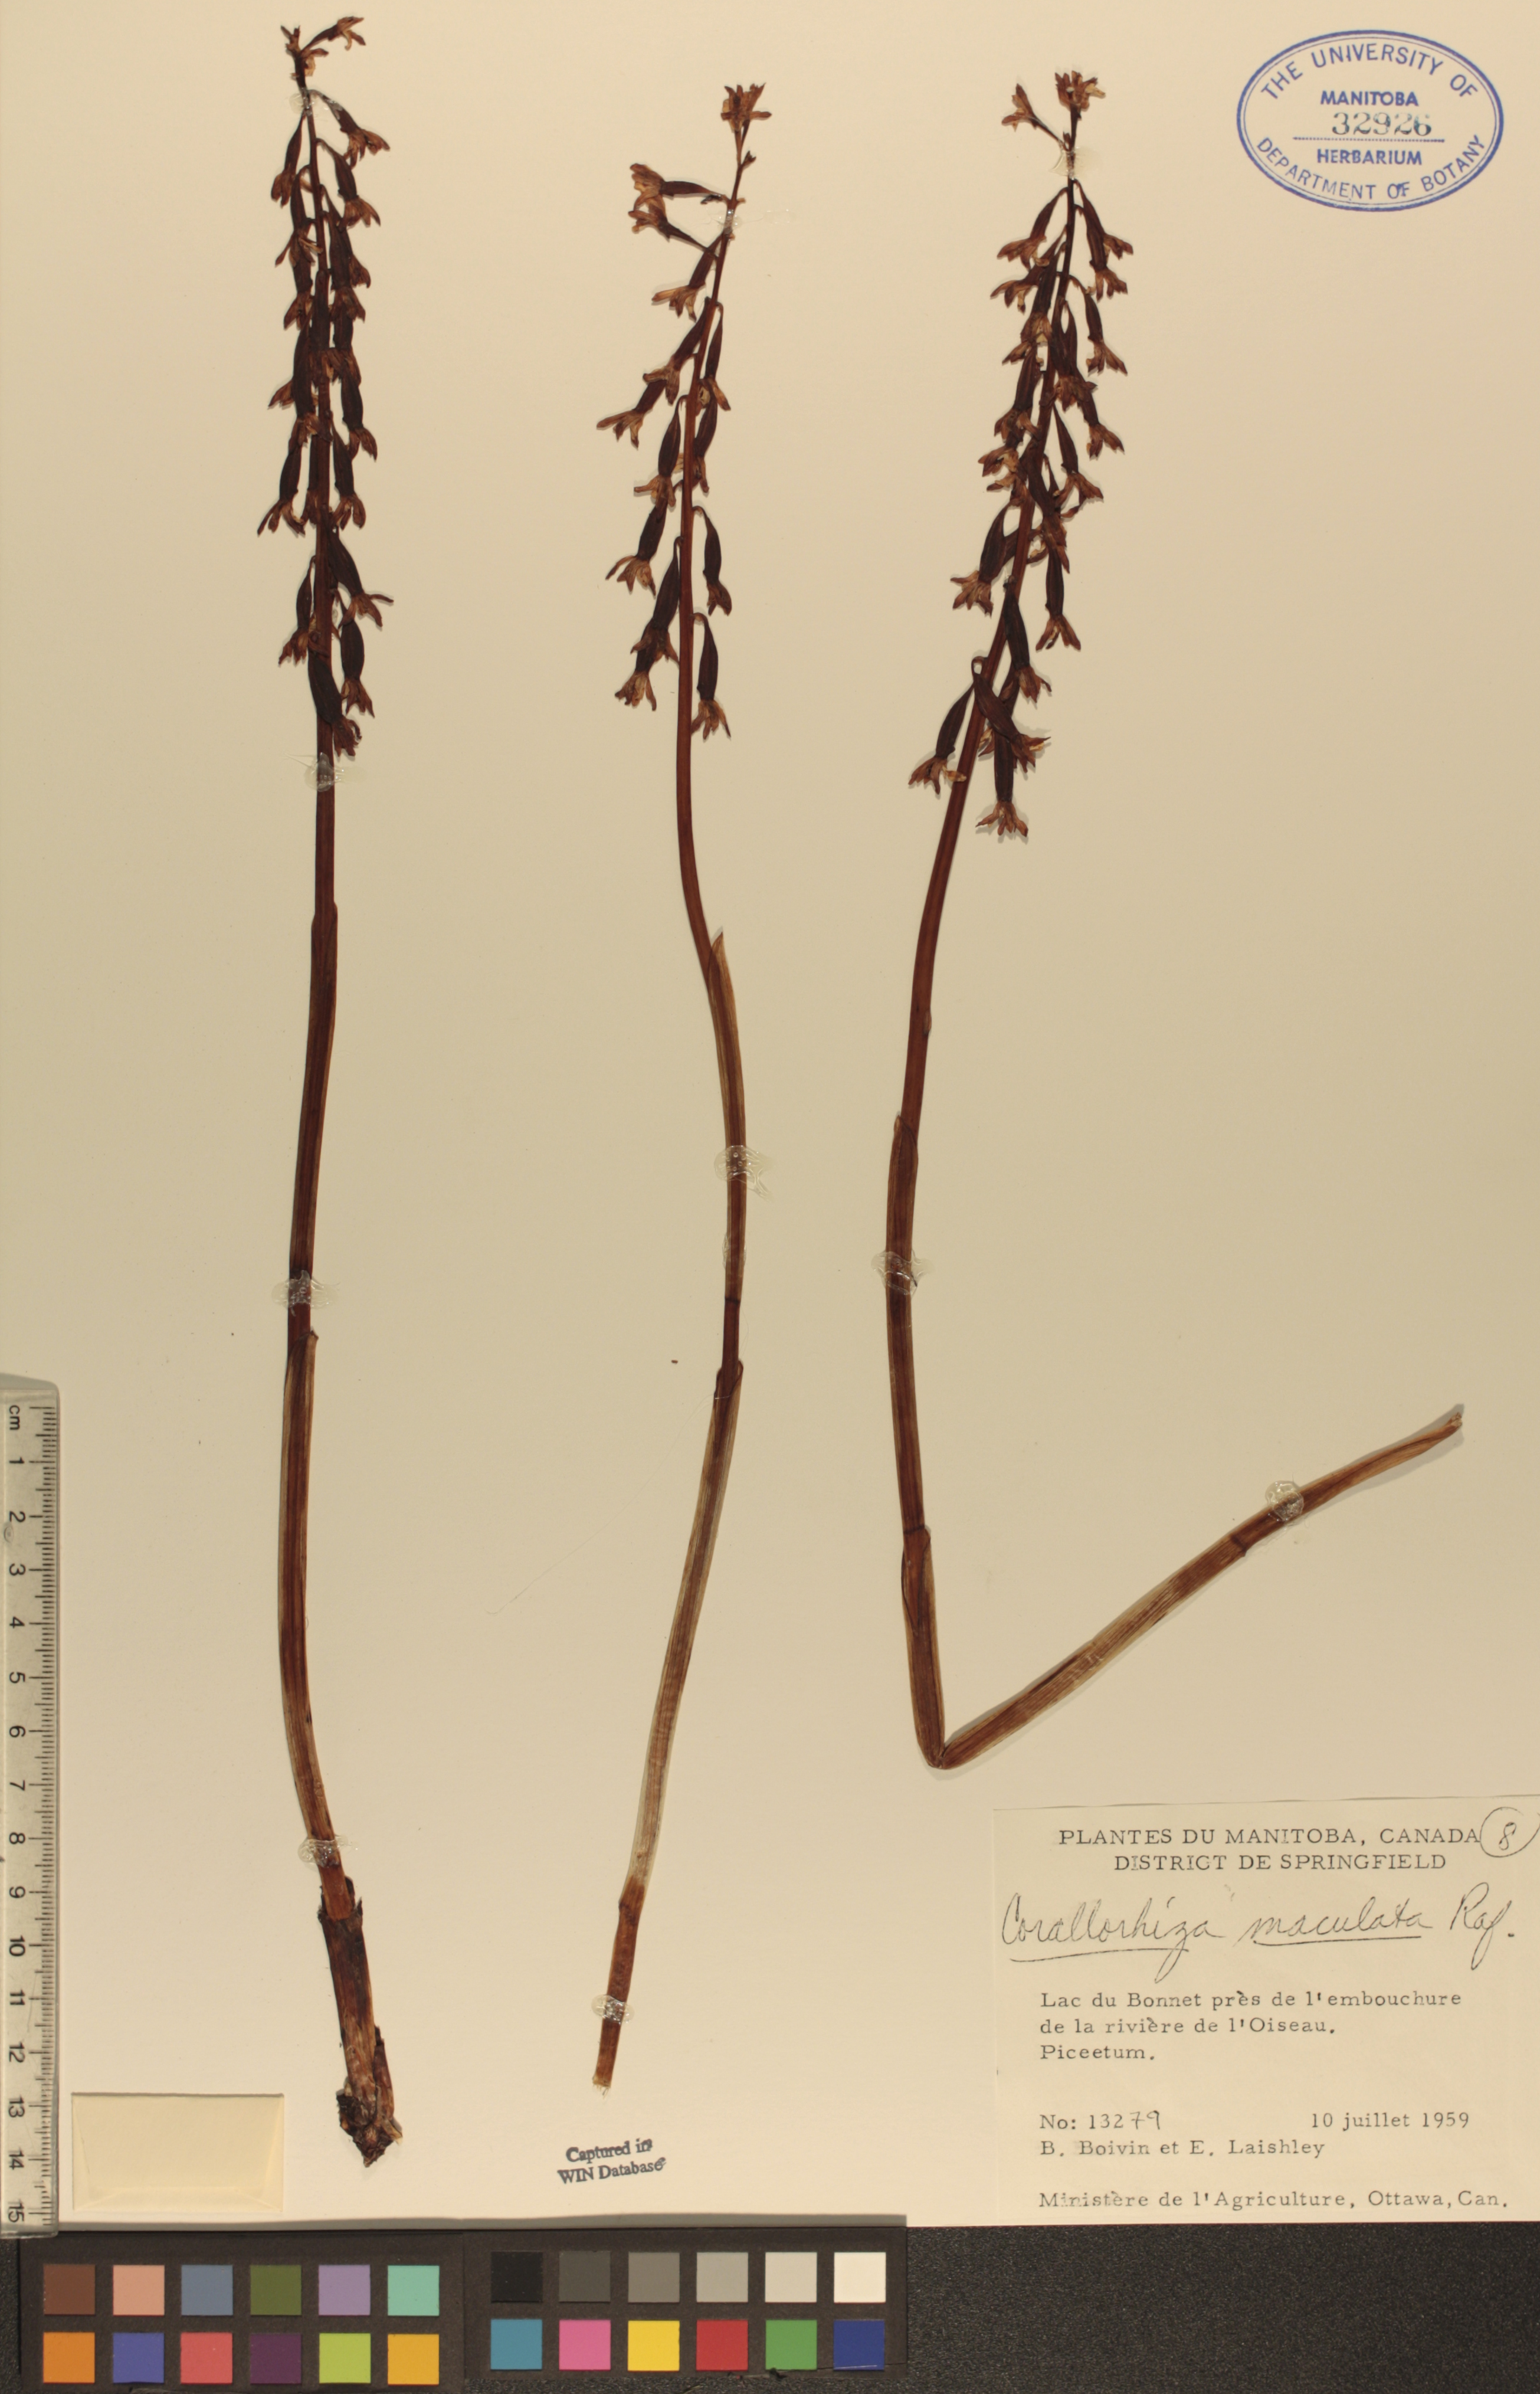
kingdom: Plantae
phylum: Tracheophyta
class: Liliopsida
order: Asparagales
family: Orchidaceae
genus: Corallorhiza
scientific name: Corallorhiza maculata
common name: Spotted coralroot
